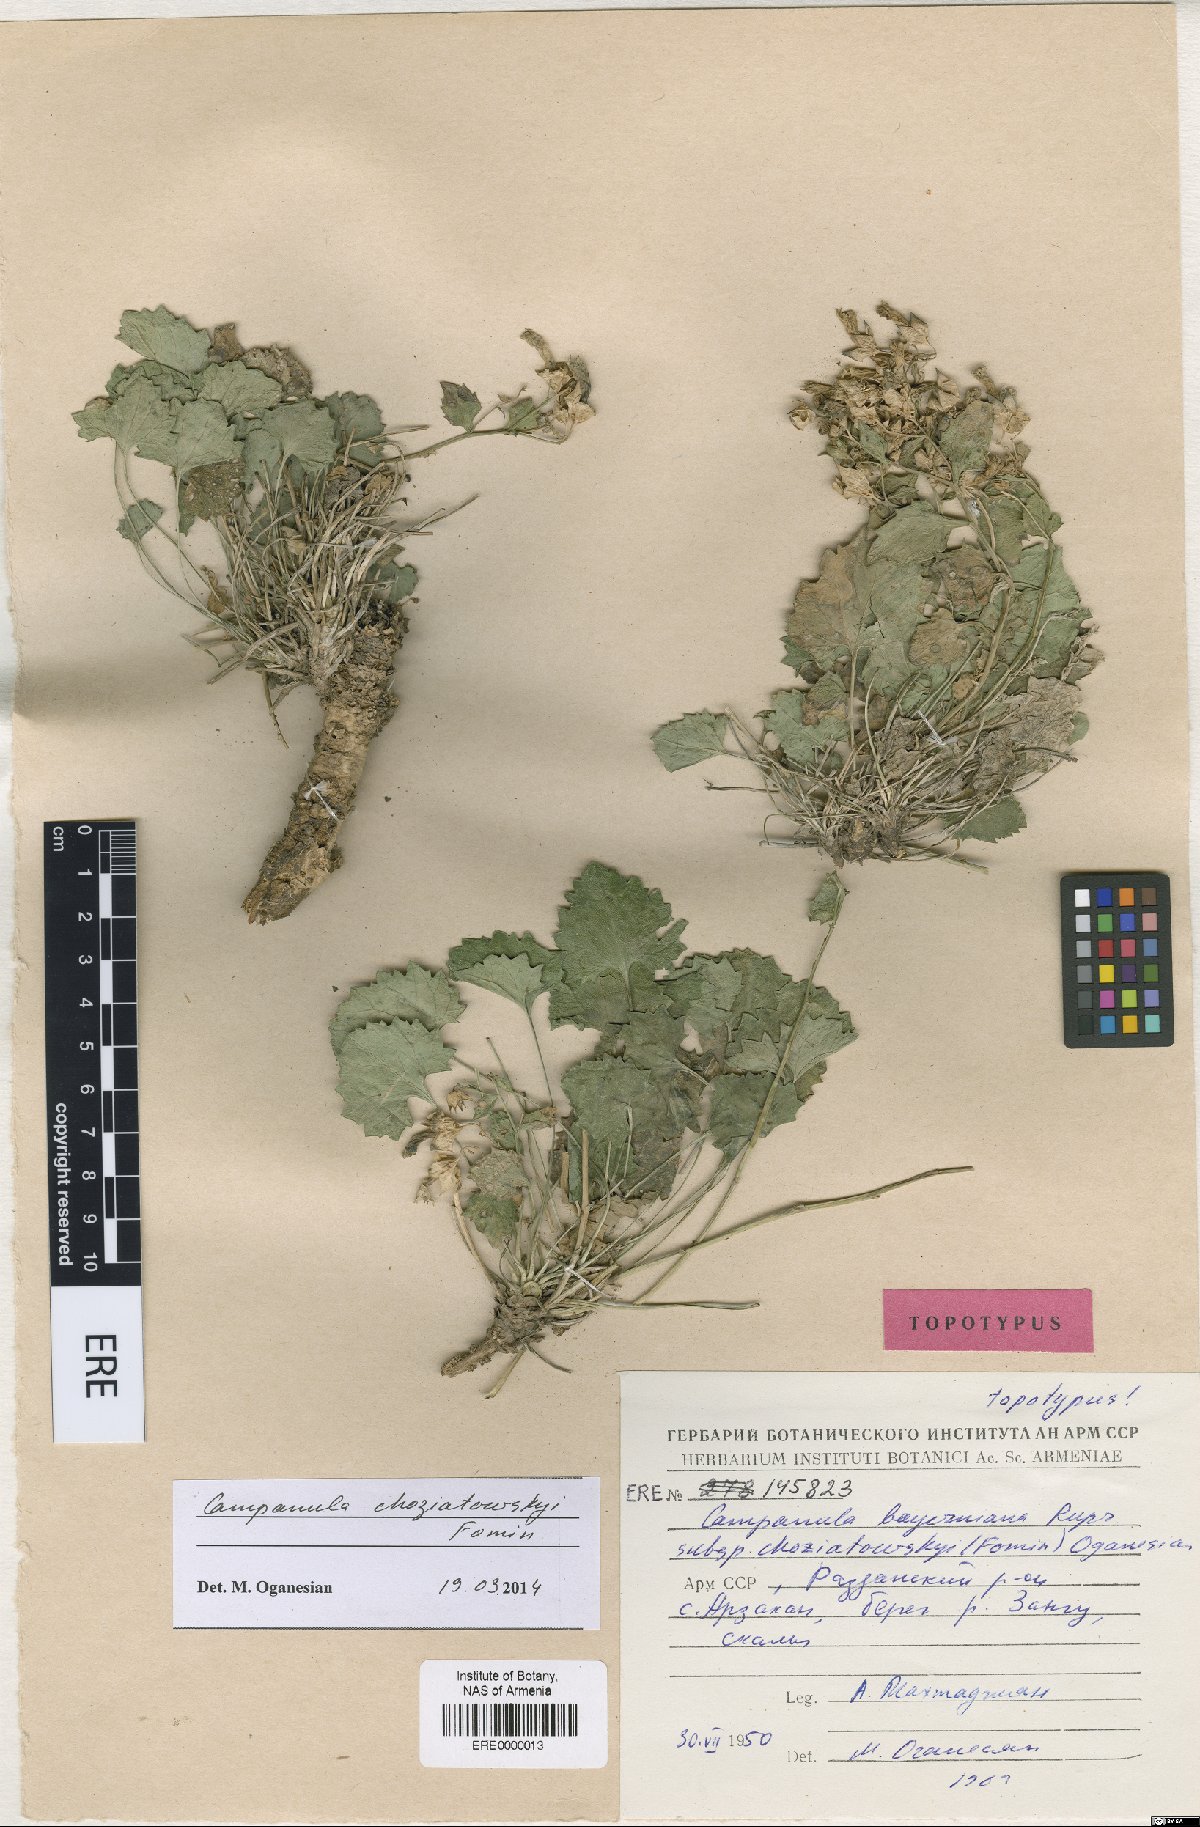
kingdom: Plantae
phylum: Tracheophyta
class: Magnoliopsida
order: Asterales
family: Campanulaceae
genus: Campanula
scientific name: Campanula bayerniana
